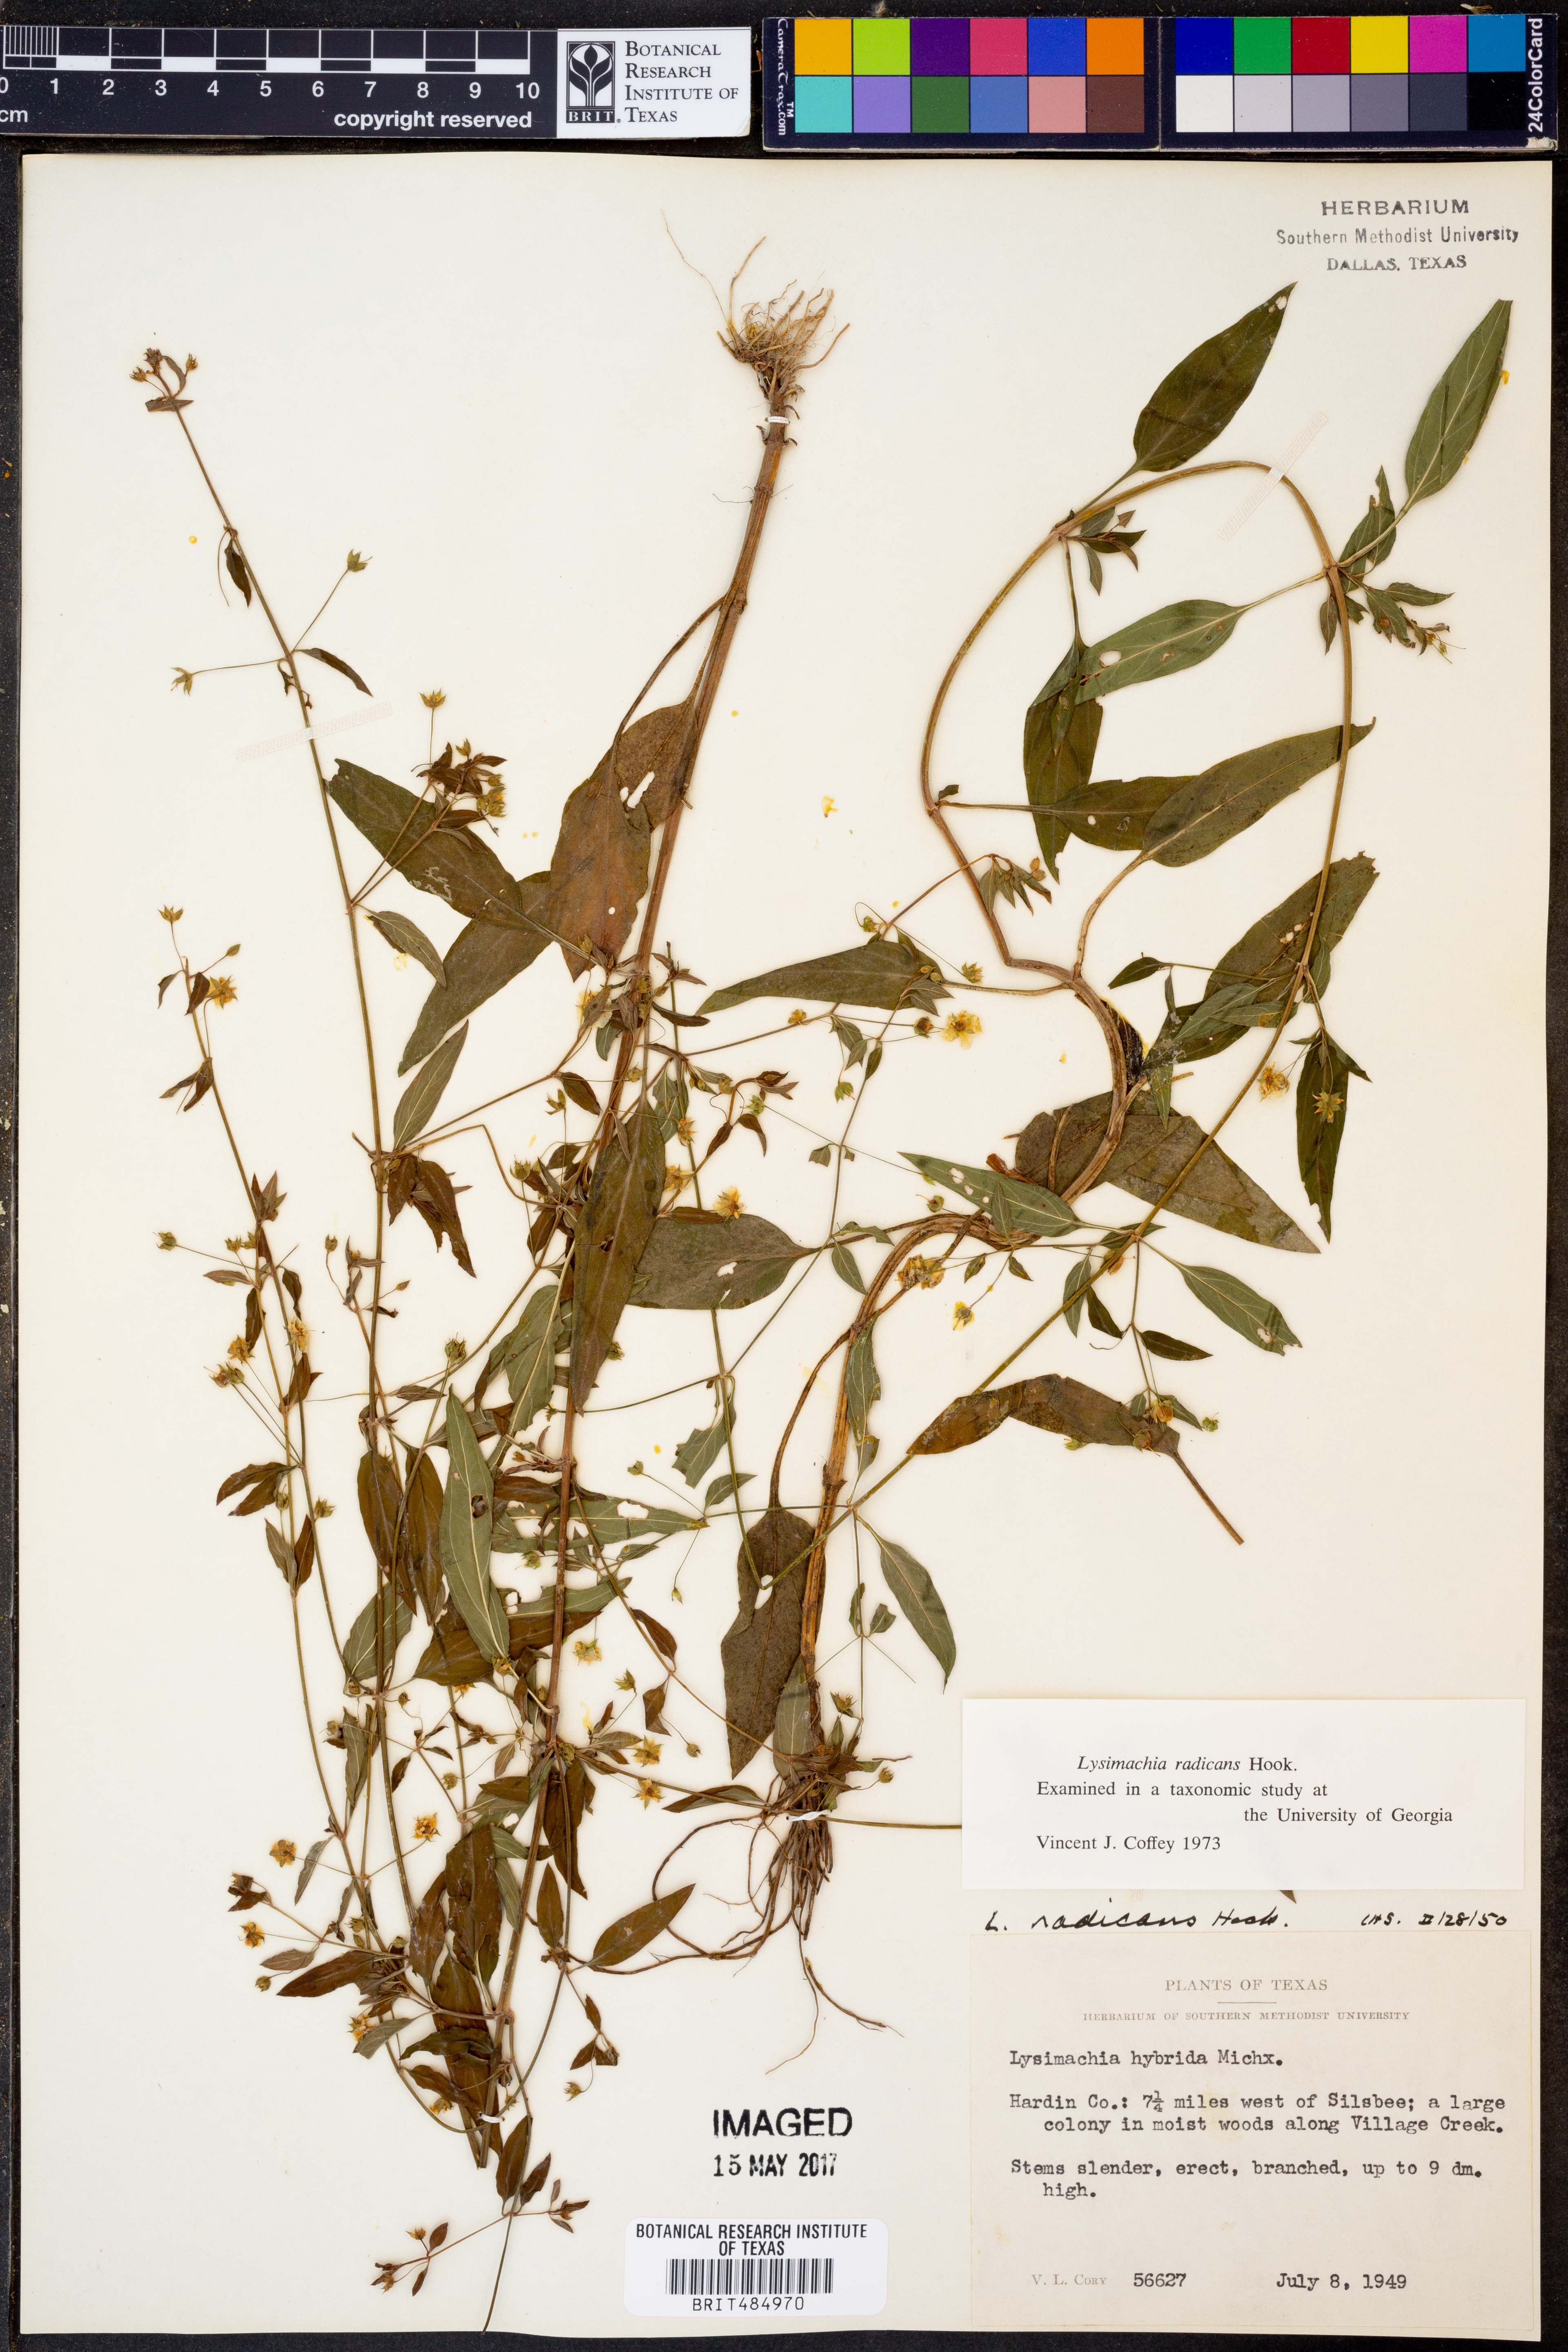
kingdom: Plantae
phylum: Tracheophyta
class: Magnoliopsida
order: Ericales
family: Primulaceae
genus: Lysimachia
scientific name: Lysimachia radicans
